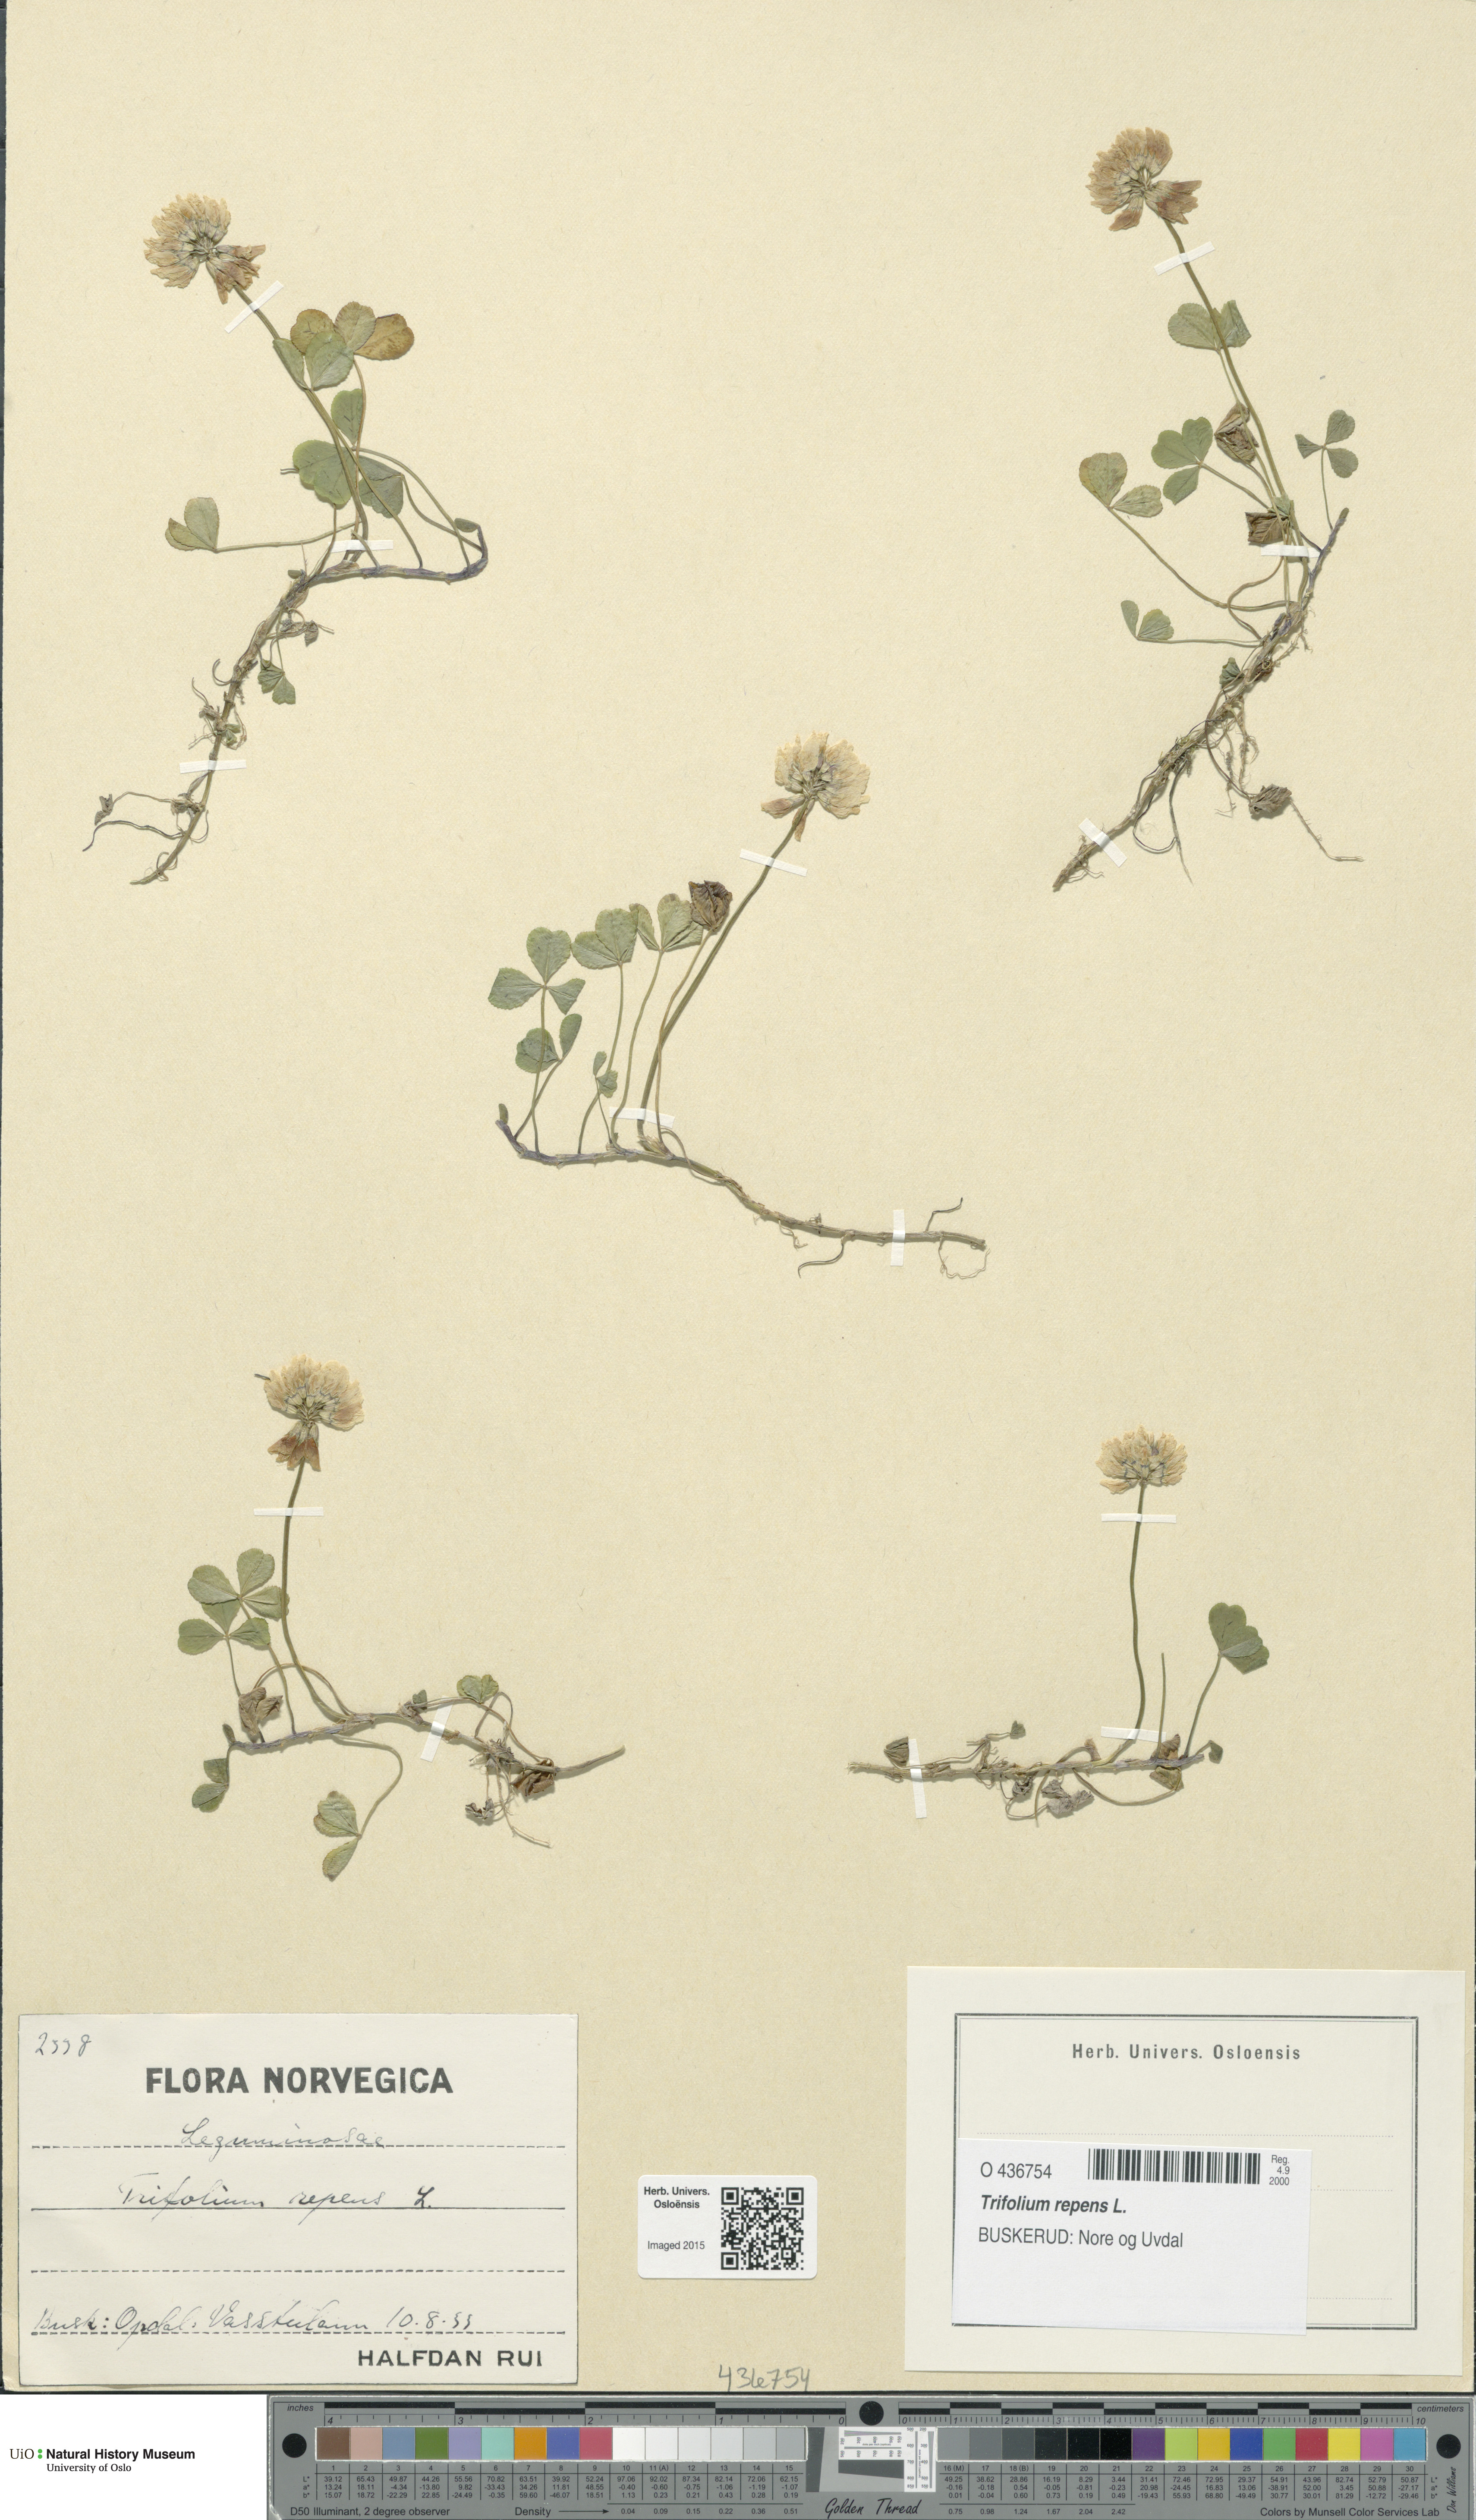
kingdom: Plantae
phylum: Tracheophyta
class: Magnoliopsida
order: Fabales
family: Fabaceae
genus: Trifolium
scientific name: Trifolium repens
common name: White clover
